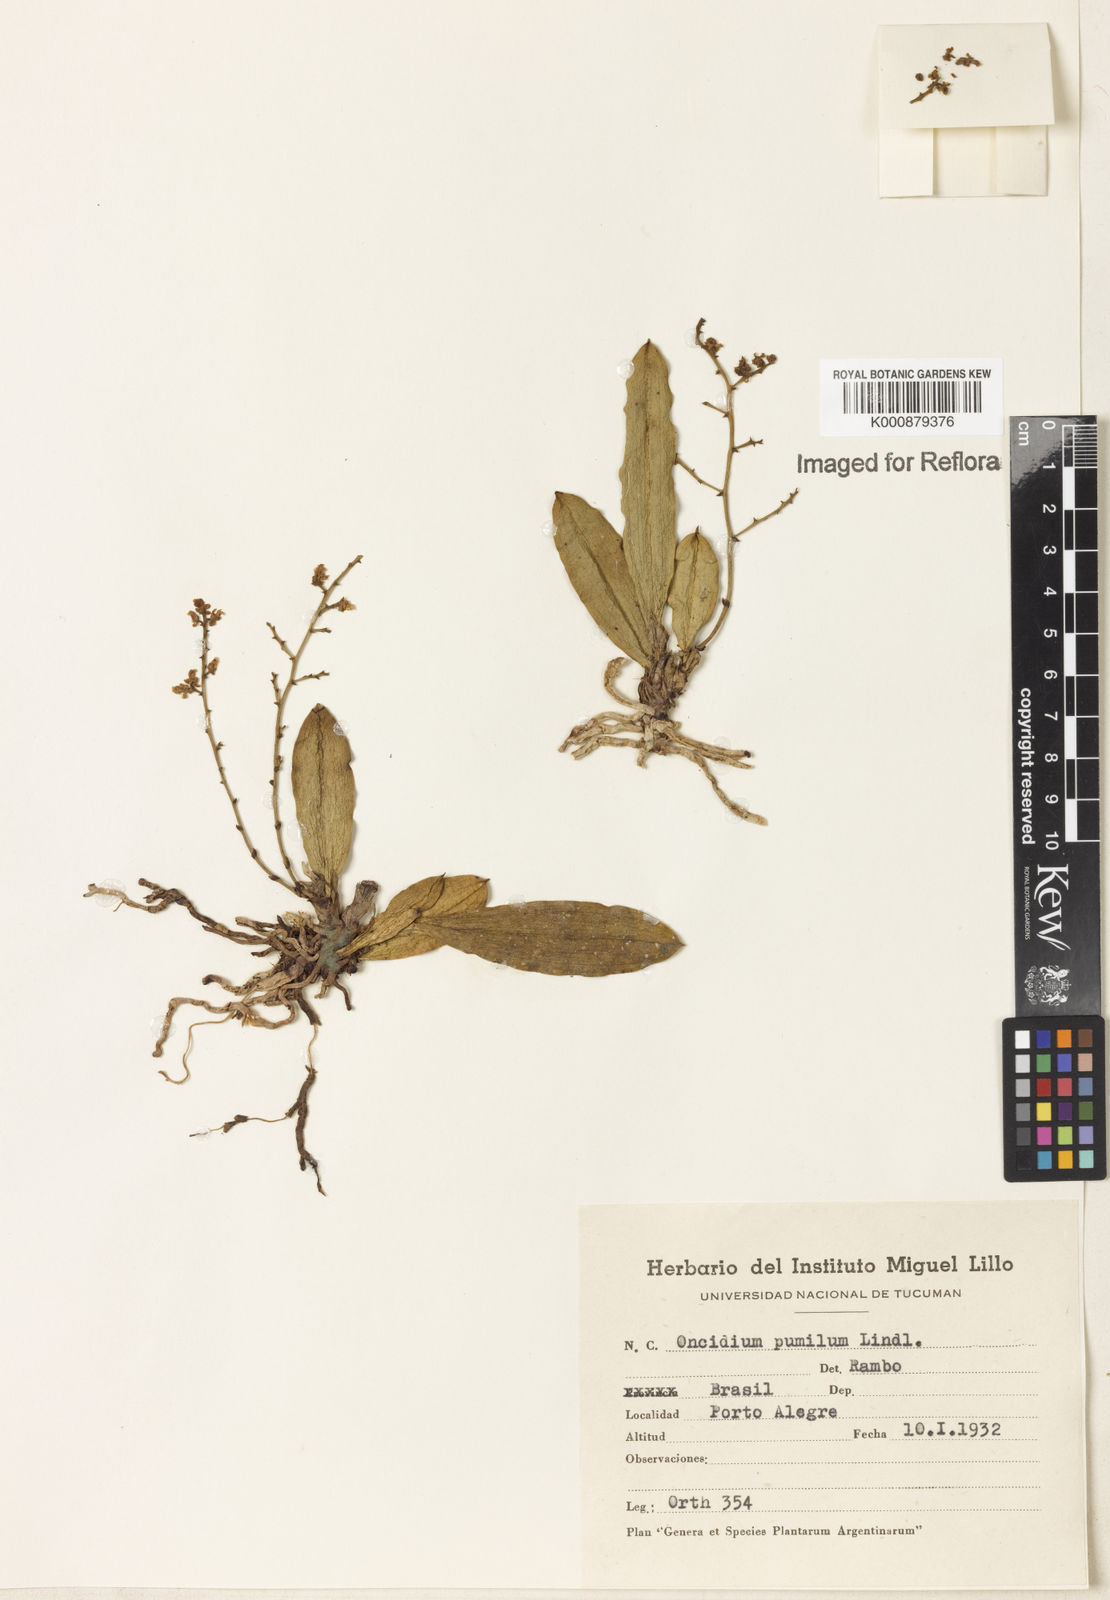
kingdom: Plantae
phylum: Tracheophyta
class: Liliopsida
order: Asparagales
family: Orchidaceae
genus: Trichocentrum
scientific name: Trichocentrum pumilum
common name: Mule-ear orchid
